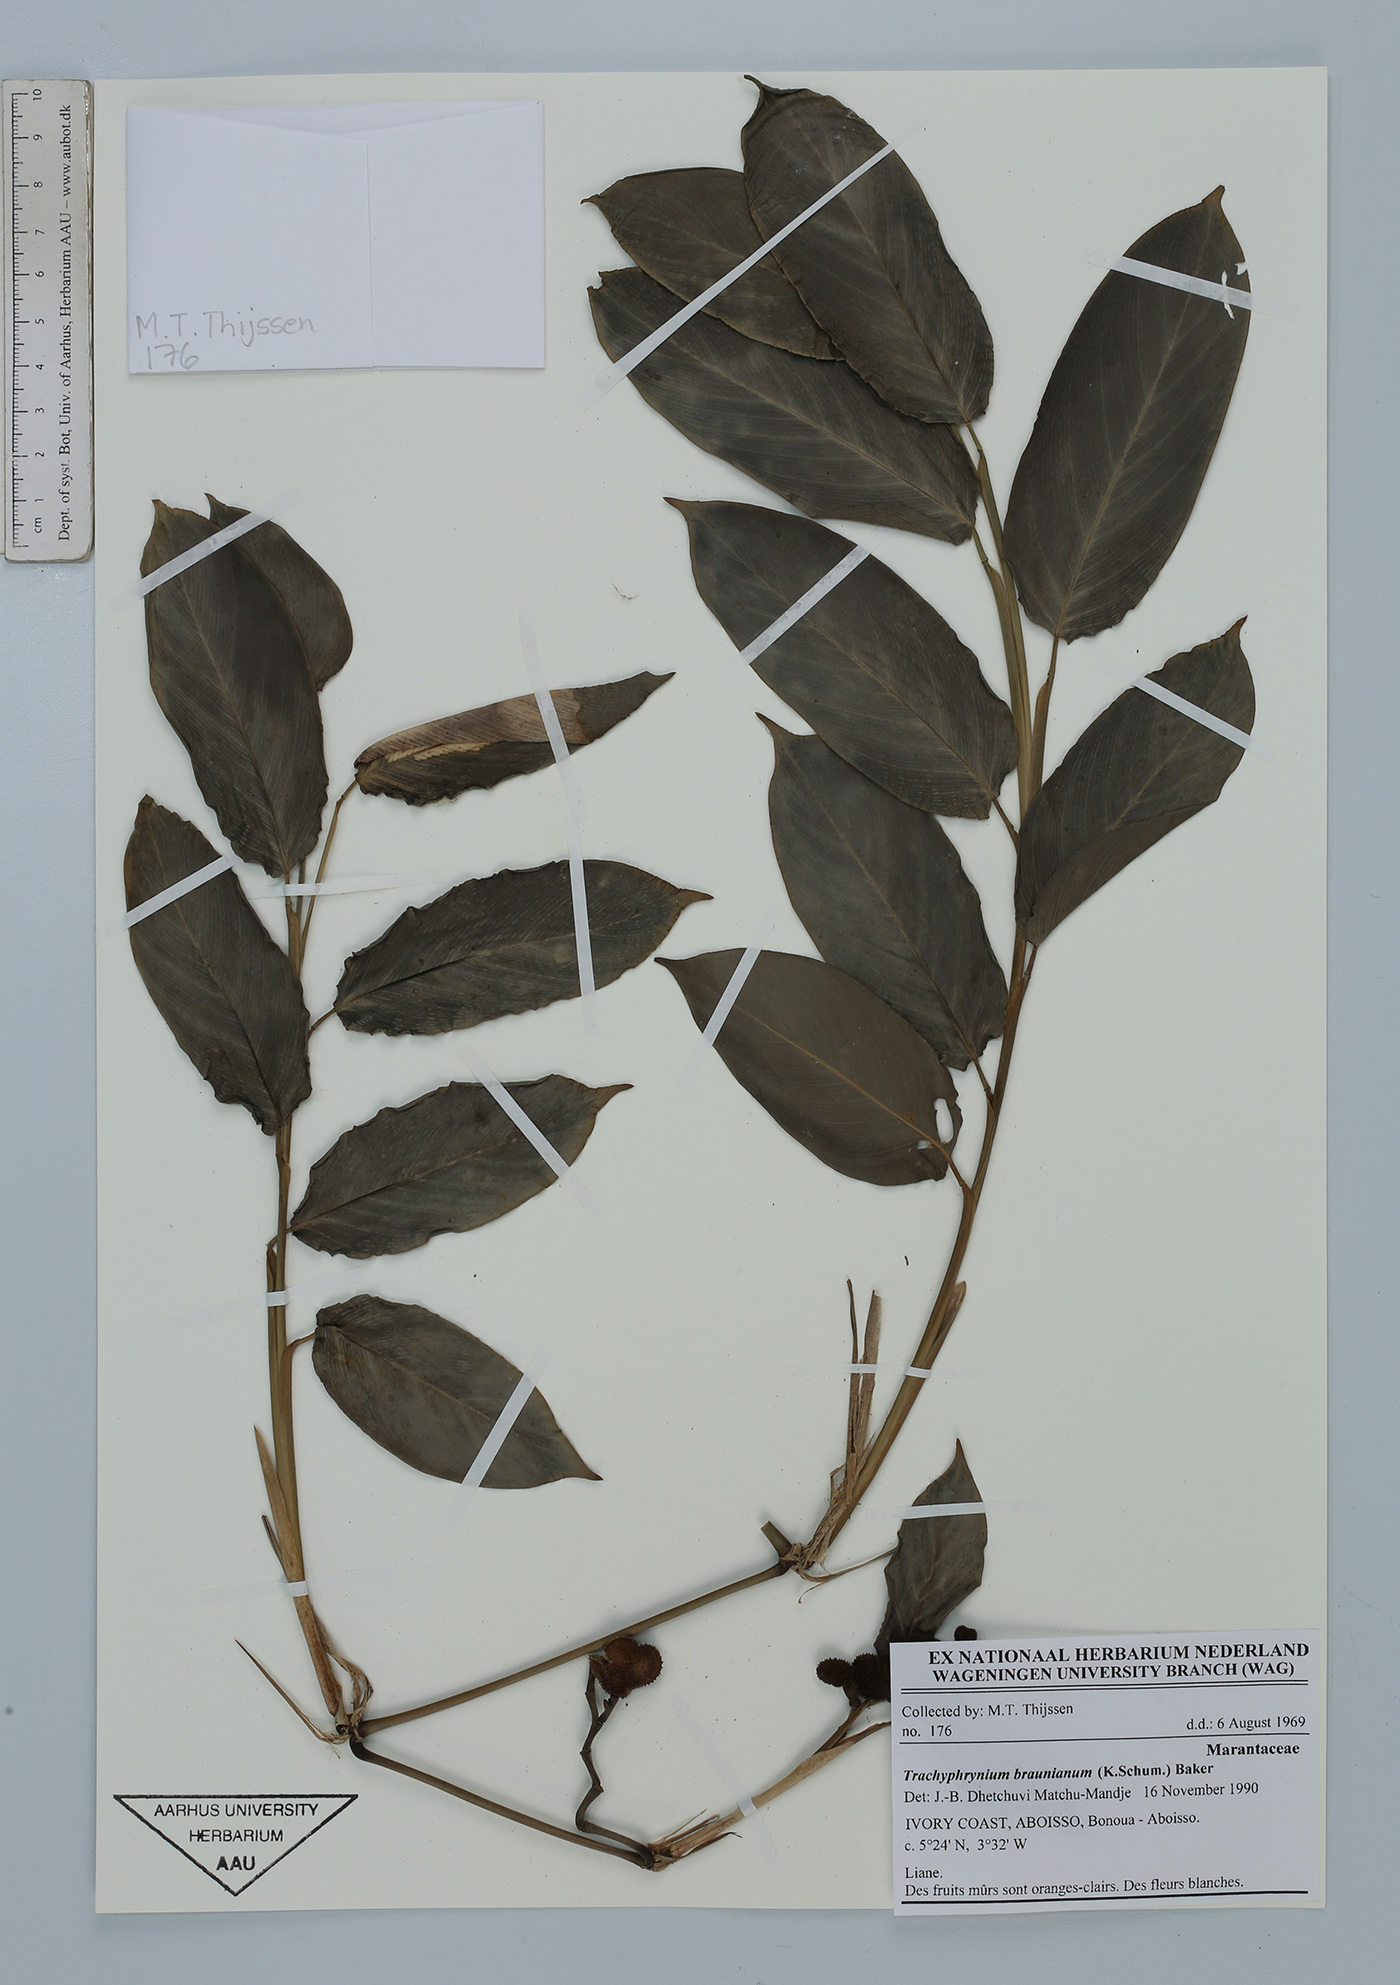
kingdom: Plantae
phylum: Tracheophyta
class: Liliopsida
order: Zingiberales
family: Marantaceae
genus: Trachyphrynium
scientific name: Trachyphrynium braunianum
